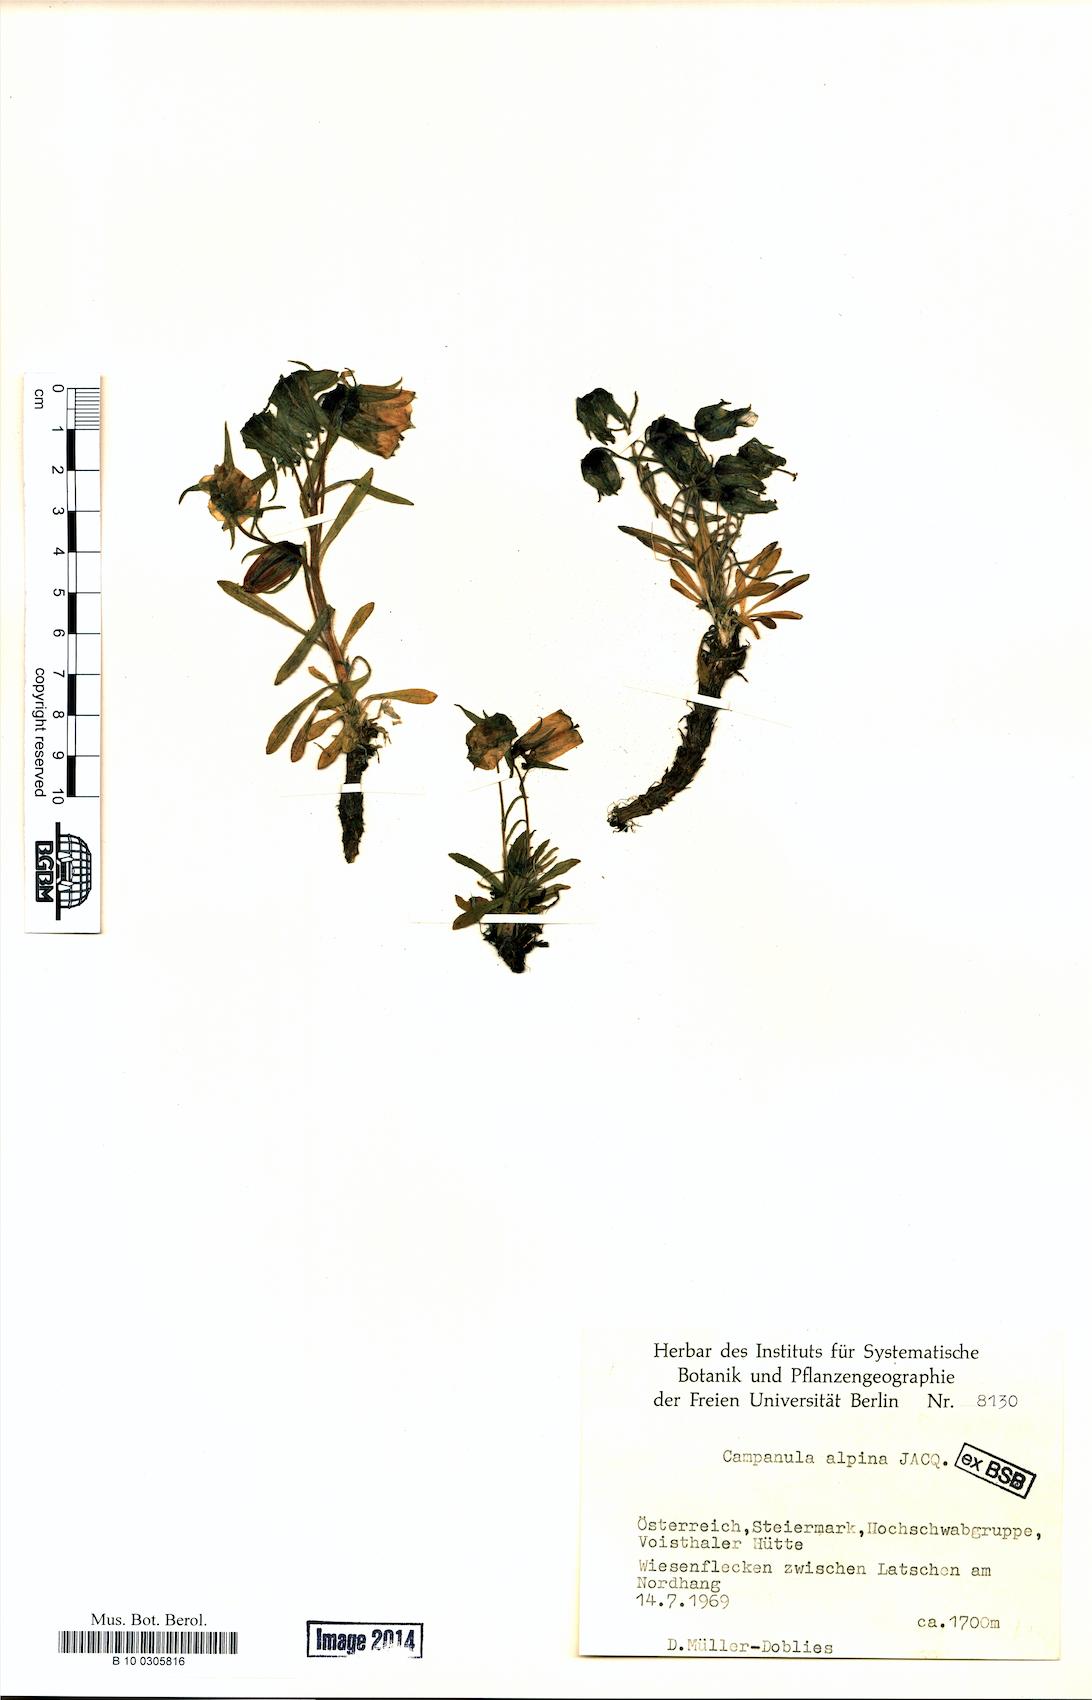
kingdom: Plantae
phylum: Tracheophyta
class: Magnoliopsida
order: Asterales
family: Campanulaceae
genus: Campanula
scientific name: Campanula alpina
